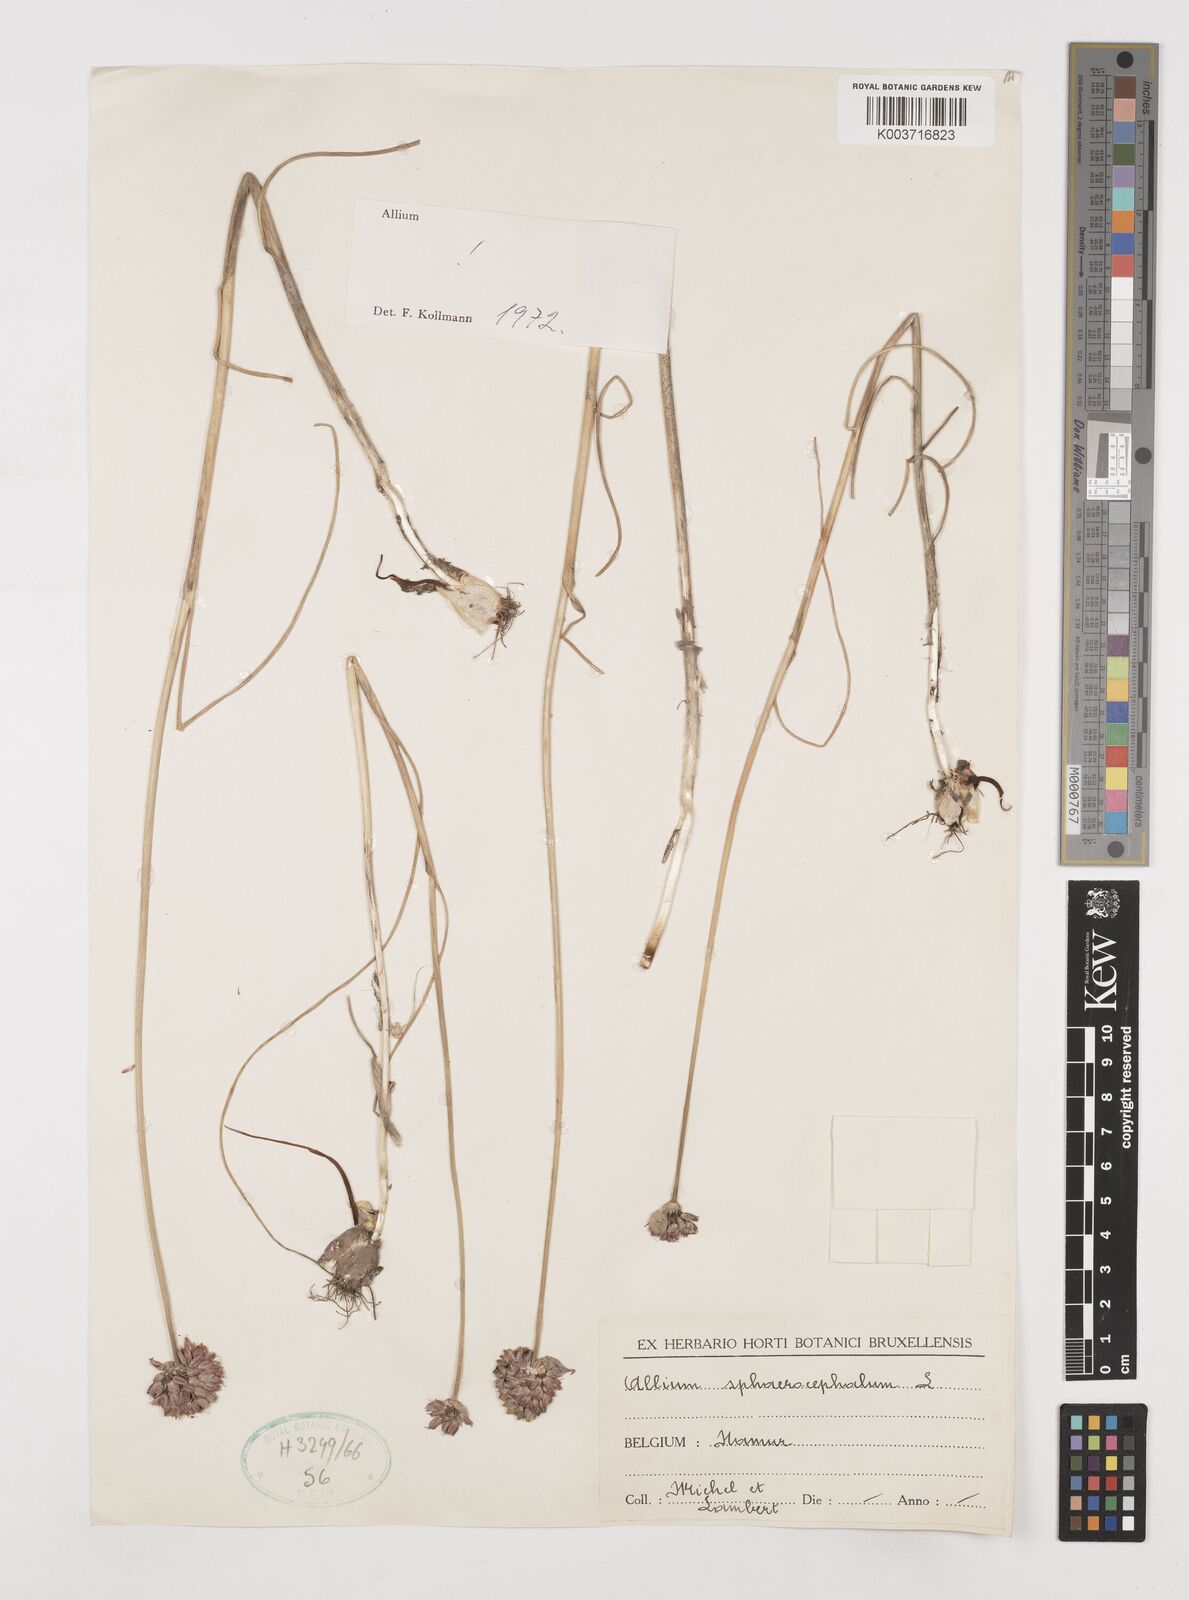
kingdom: Plantae
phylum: Tracheophyta
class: Liliopsida
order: Asparagales
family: Amaryllidaceae
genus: Allium
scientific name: Allium sphaerocephalon
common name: Round-headed leek
